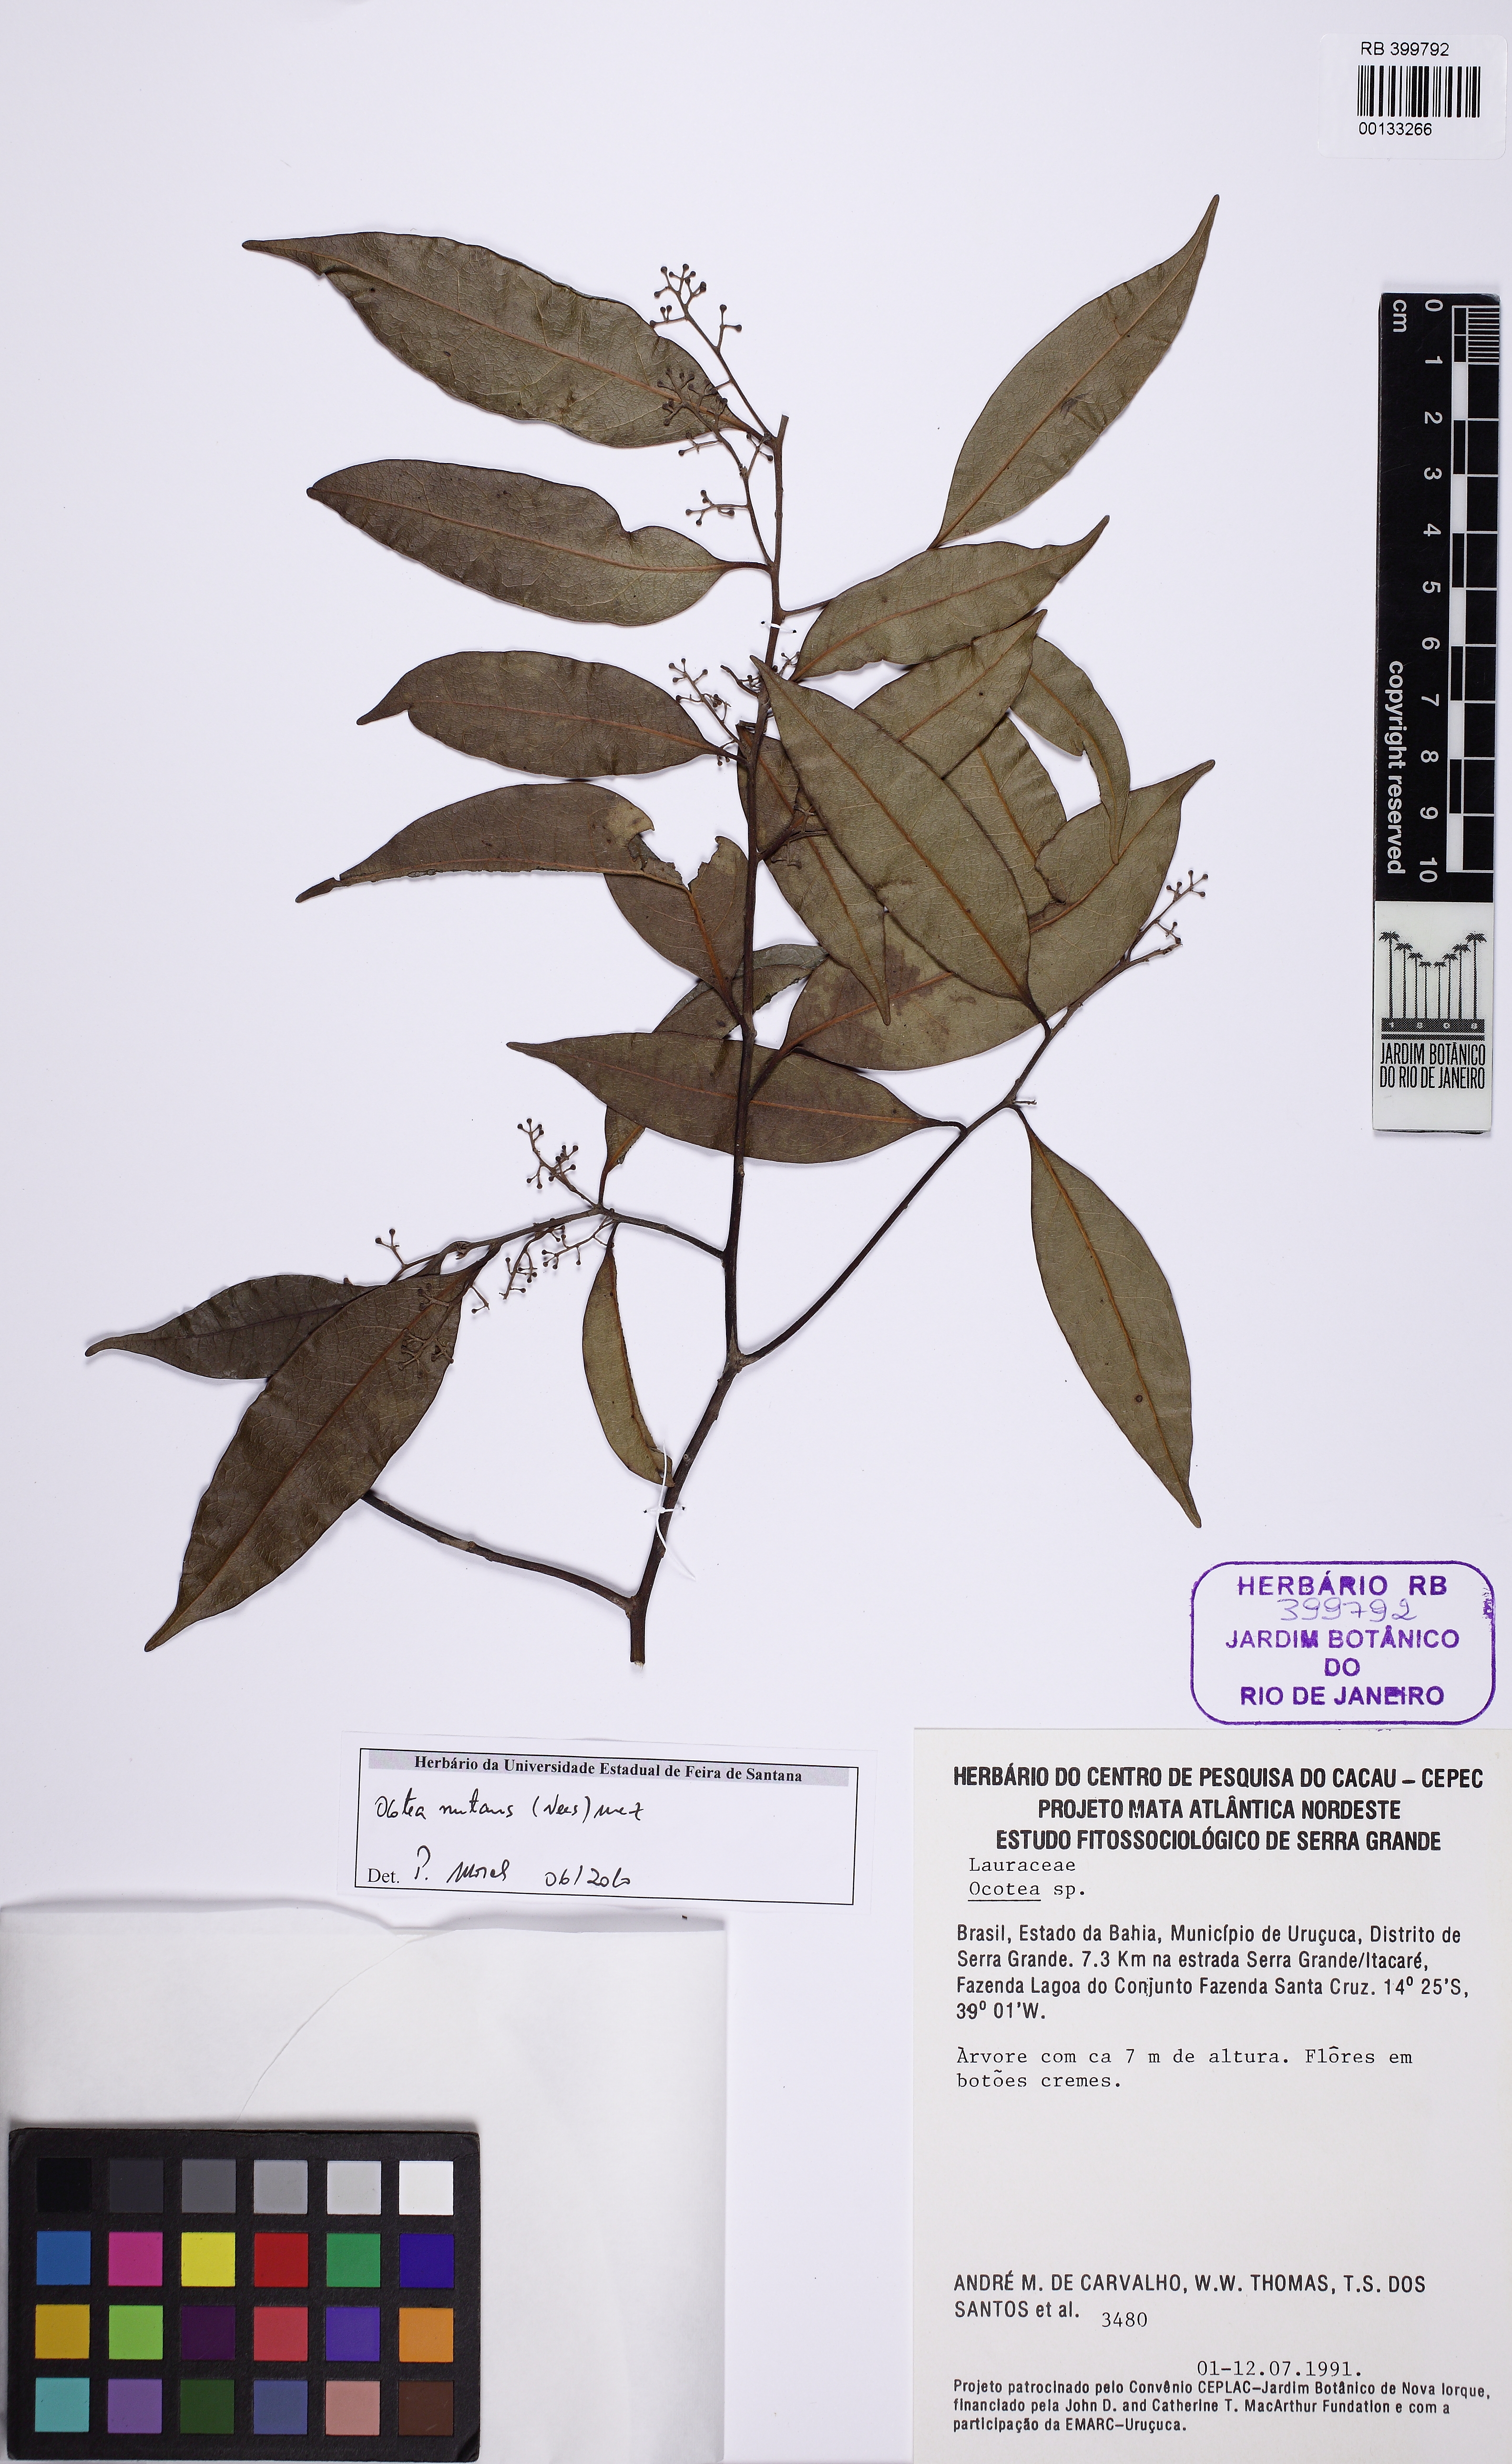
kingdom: Plantae
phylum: Tracheophyta
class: Magnoliopsida
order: Laurales
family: Lauraceae
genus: Mespilodaphne
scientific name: Mespilodaphne nutans
